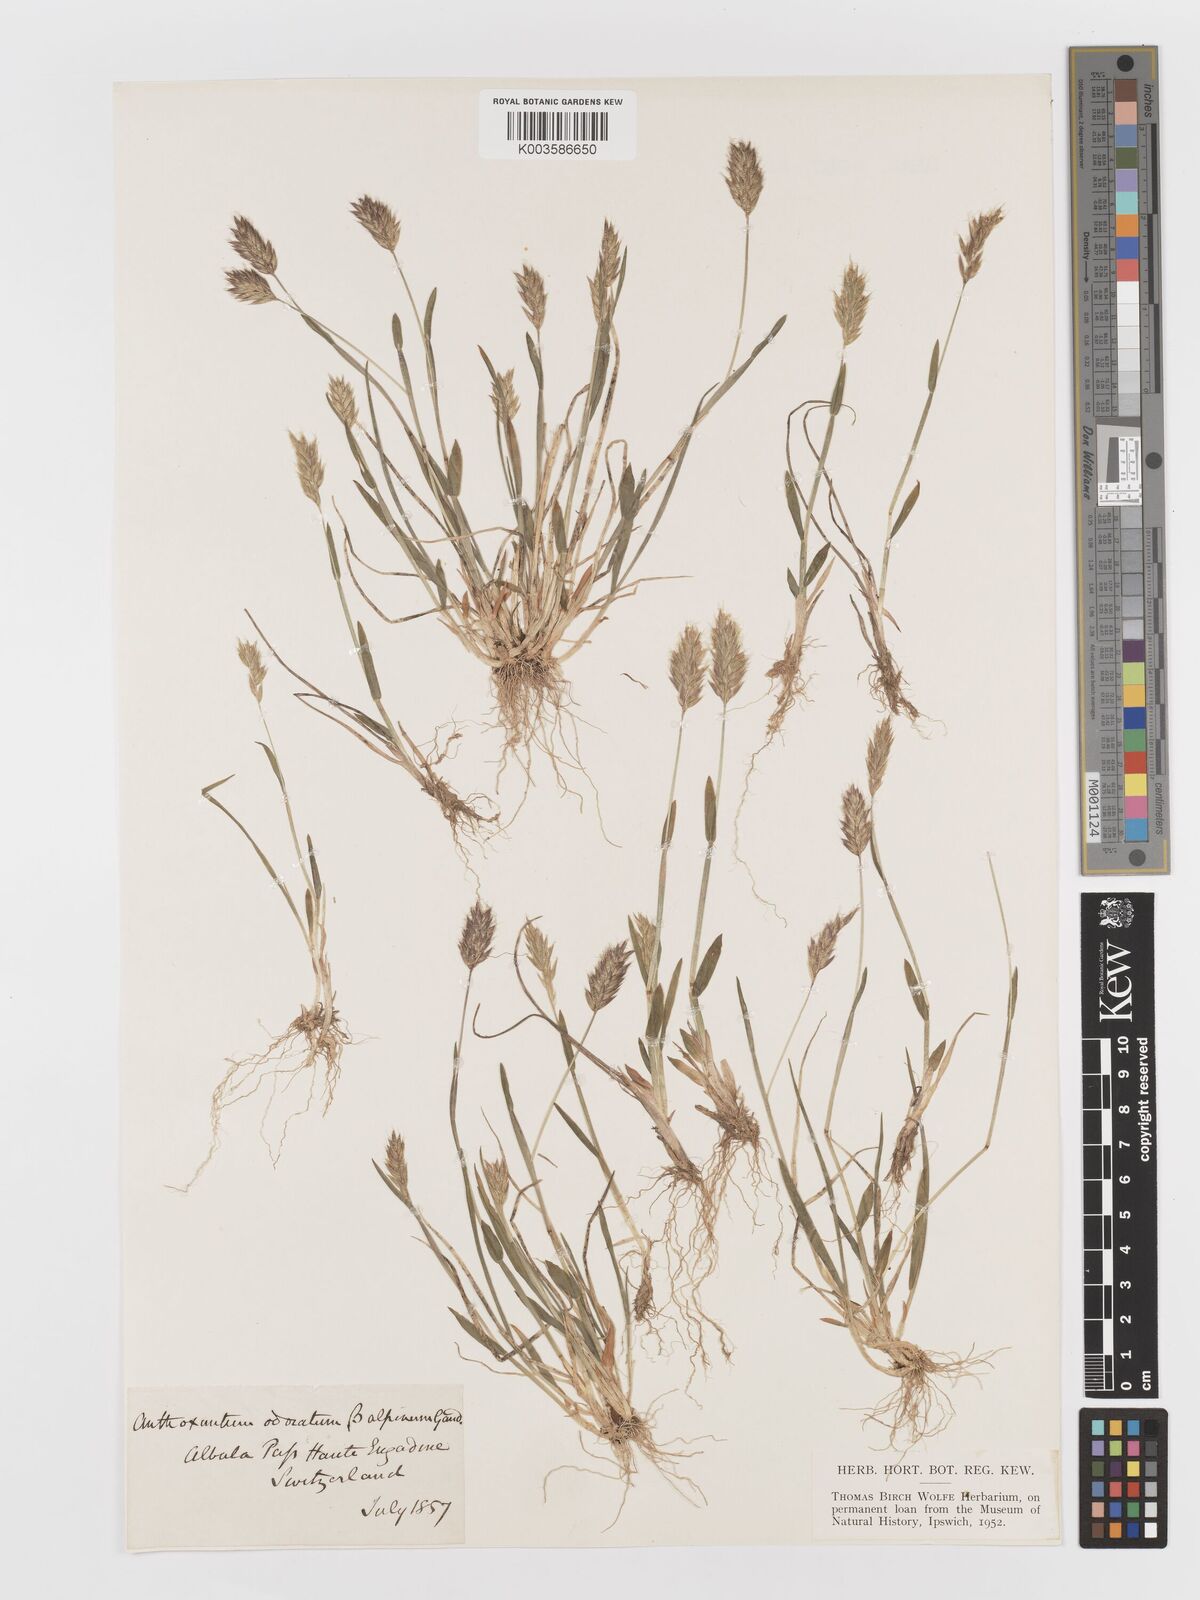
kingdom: Plantae
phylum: Tracheophyta
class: Liliopsida
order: Poales
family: Poaceae
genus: Anthoxanthum
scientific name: Anthoxanthum odoratum
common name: Sweet vernalgrass
